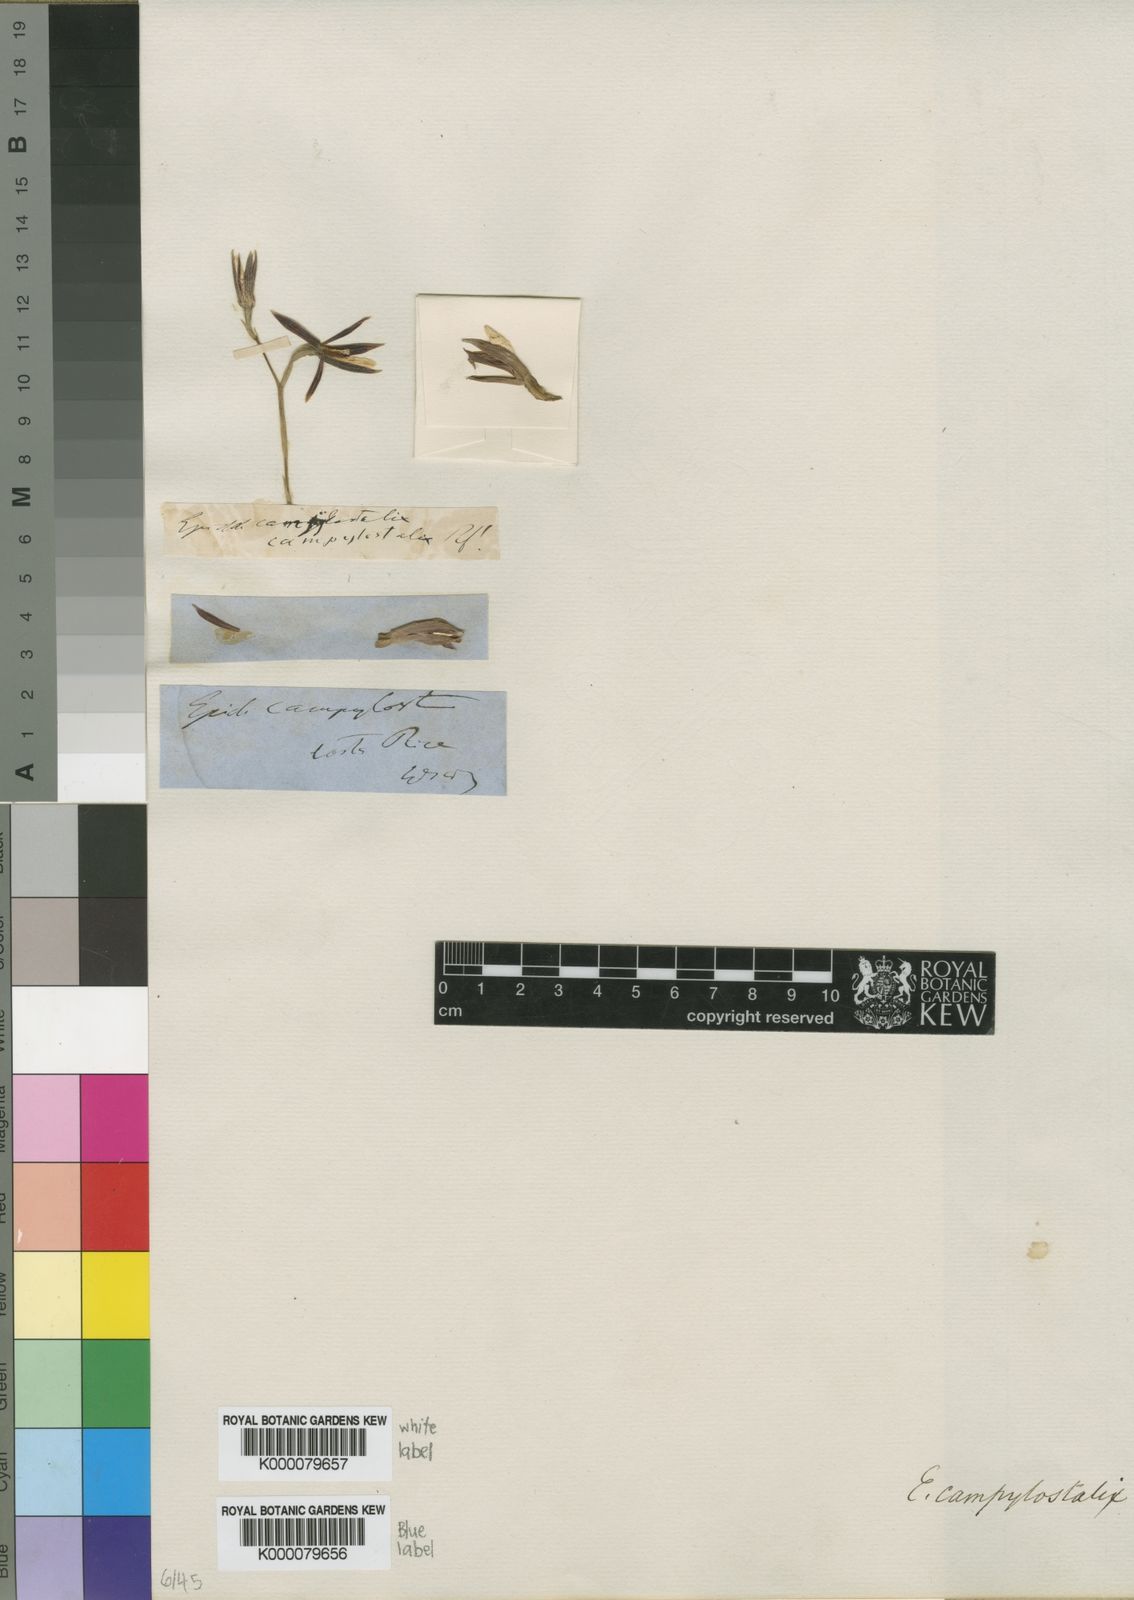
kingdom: Plantae
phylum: Tracheophyta
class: Liliopsida
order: Asparagales
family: Orchidaceae
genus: Prosthechea
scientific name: Prosthechea campylostalix
